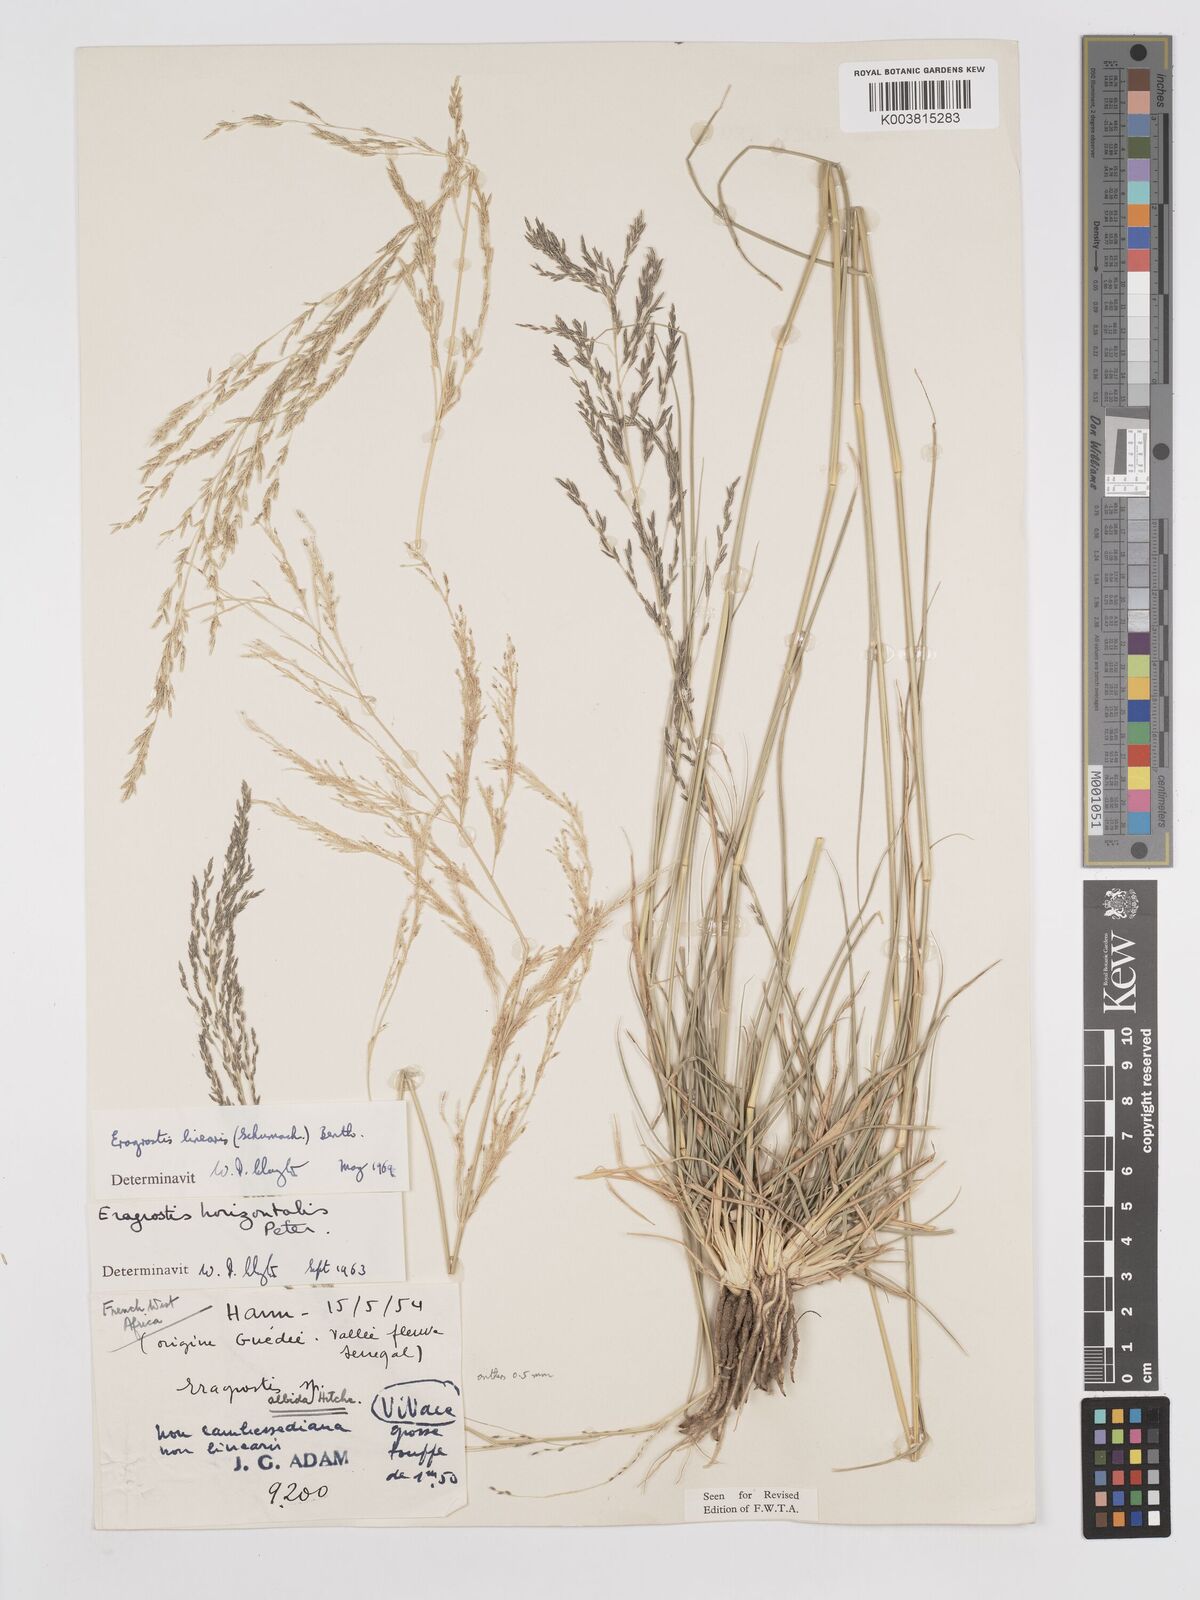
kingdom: Plantae
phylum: Tracheophyta
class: Liliopsida
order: Poales
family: Poaceae
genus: Eragrostis
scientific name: Eragrostis prolifera
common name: Dominican lovegrass
